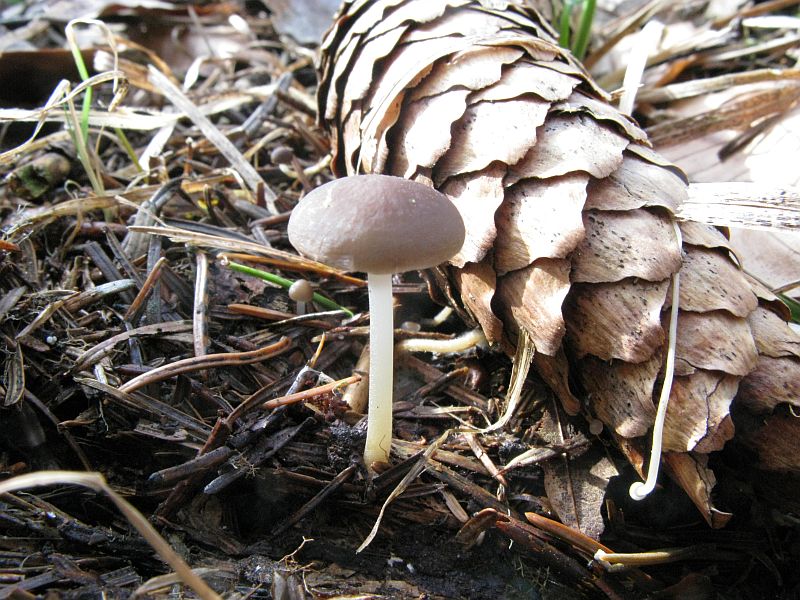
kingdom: Fungi
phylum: Basidiomycota
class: Agaricomycetes
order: Agaricales
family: Physalacriaceae
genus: Strobilurus
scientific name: Strobilurus esculentus
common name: gran-koglehat
